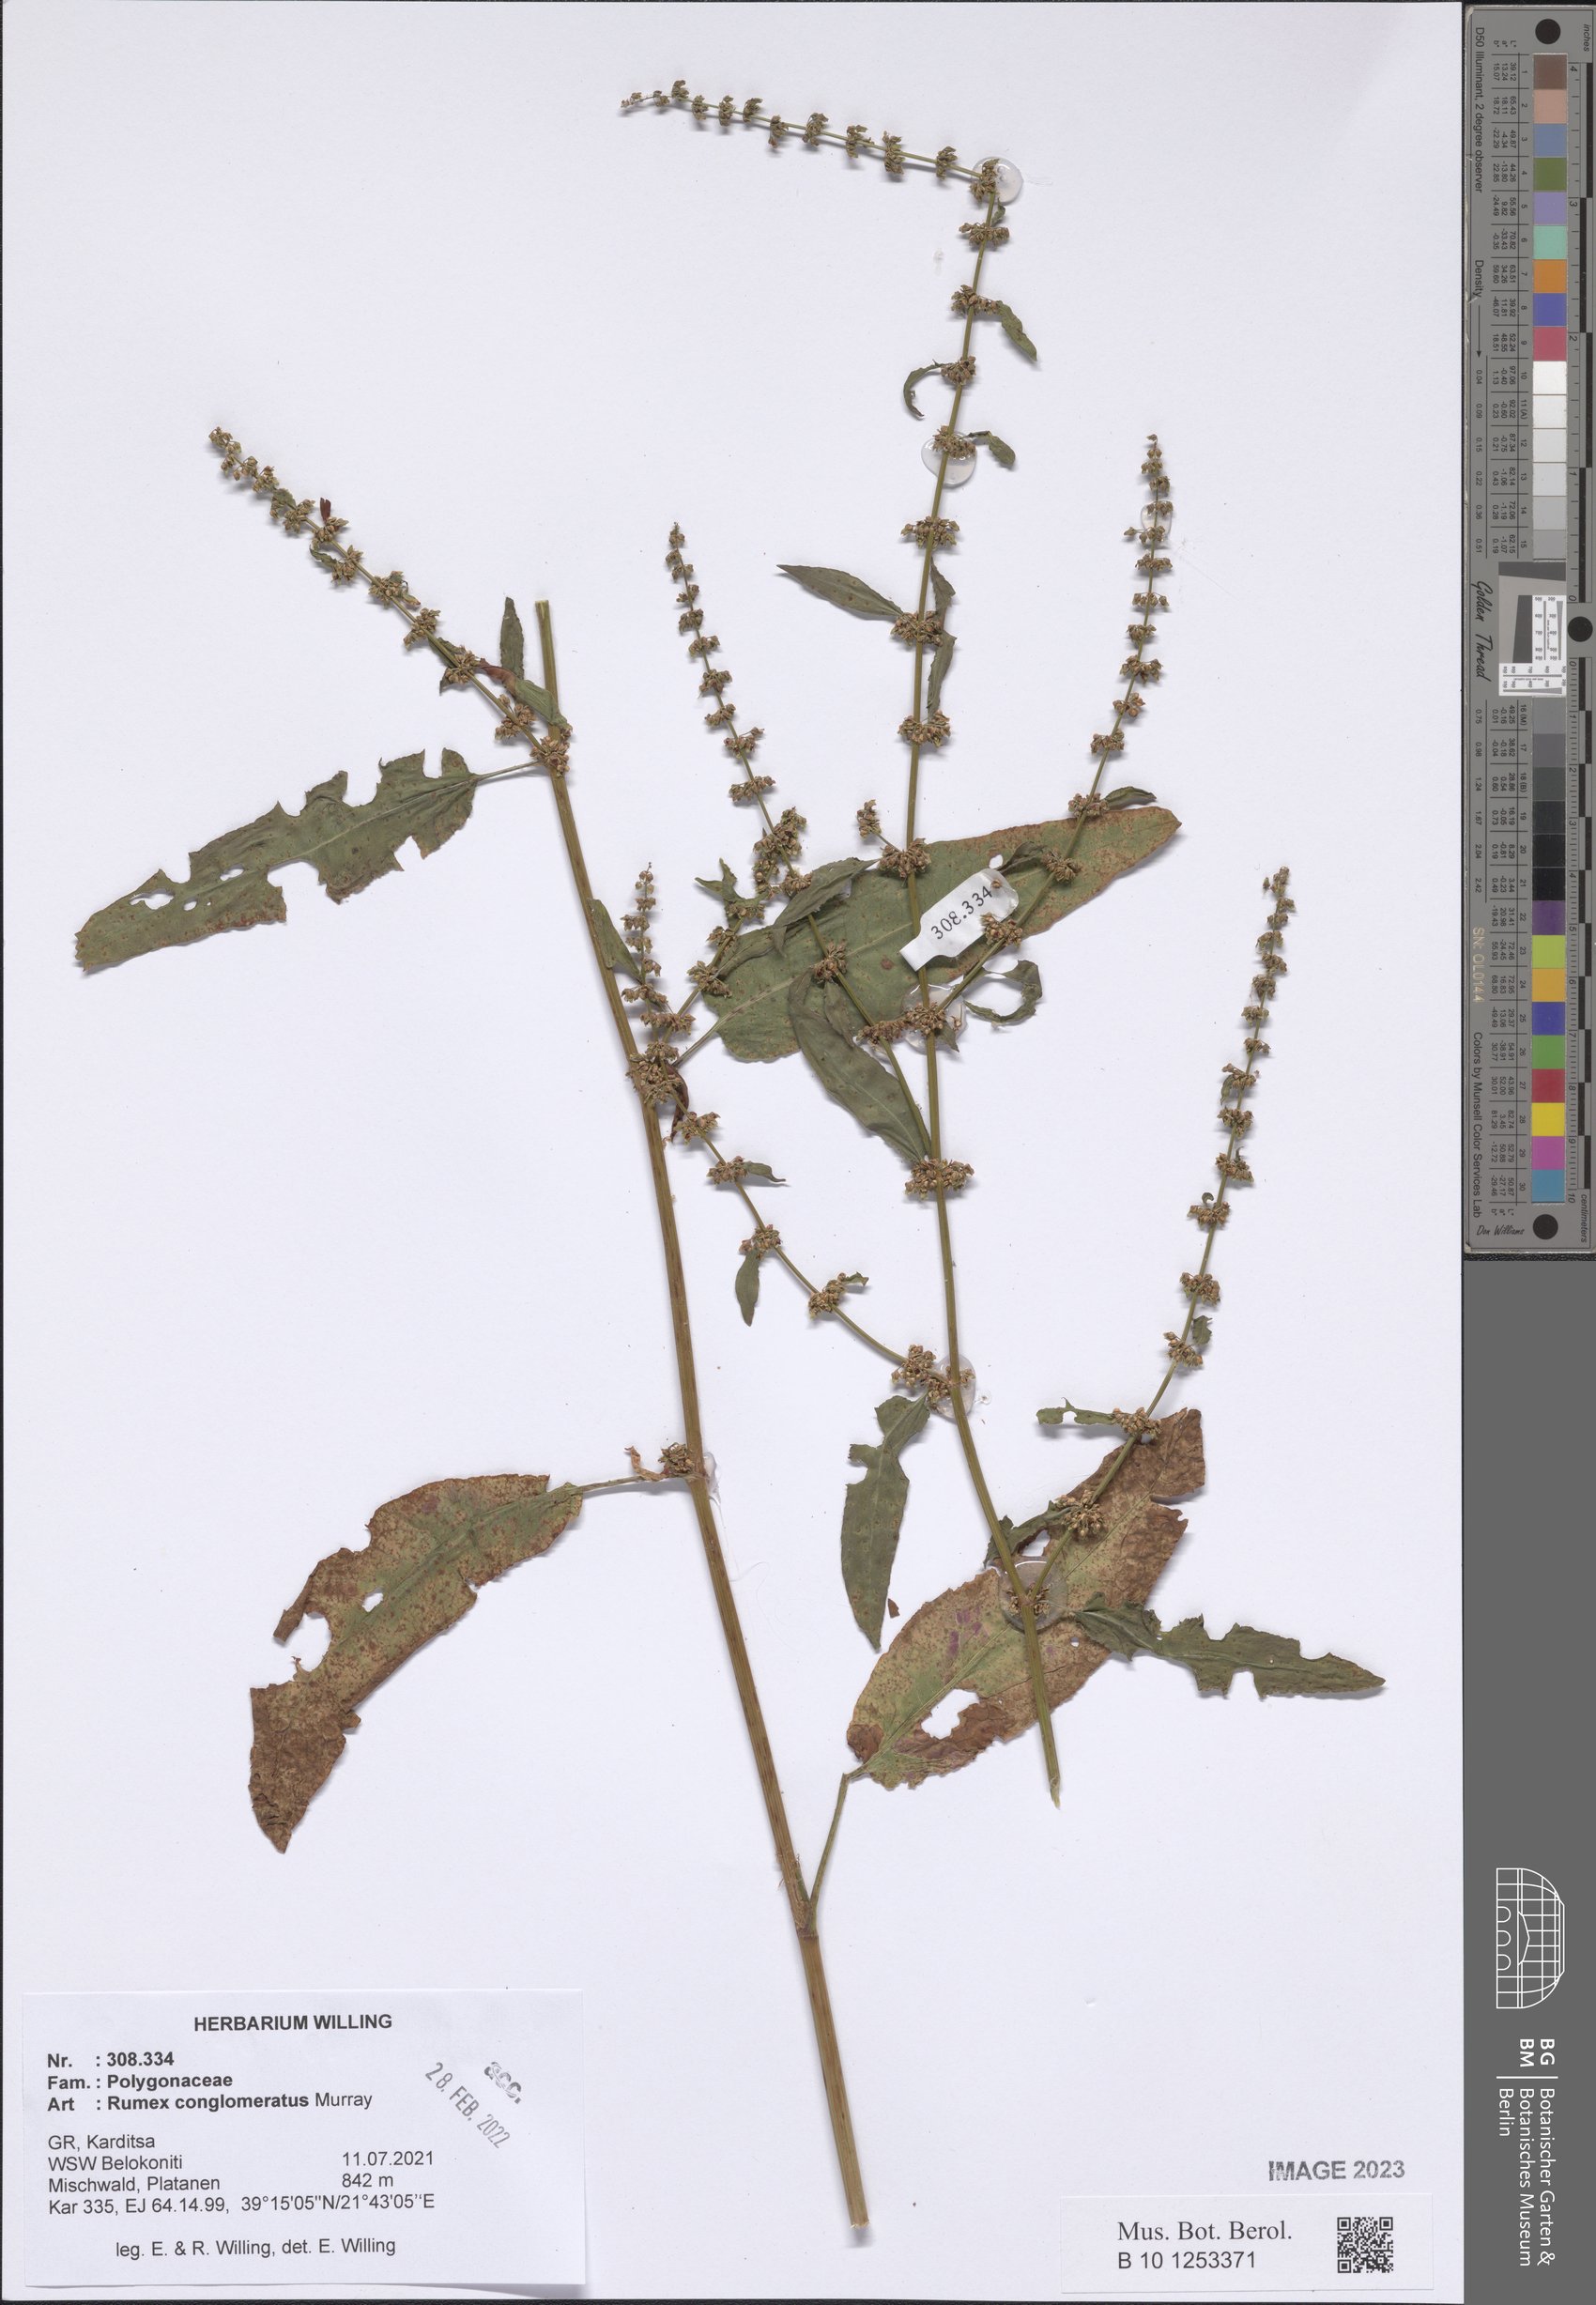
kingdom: Plantae
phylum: Tracheophyta
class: Magnoliopsida
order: Caryophyllales
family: Polygonaceae
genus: Rumex
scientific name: Rumex conglomeratus
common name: Clustered dock
